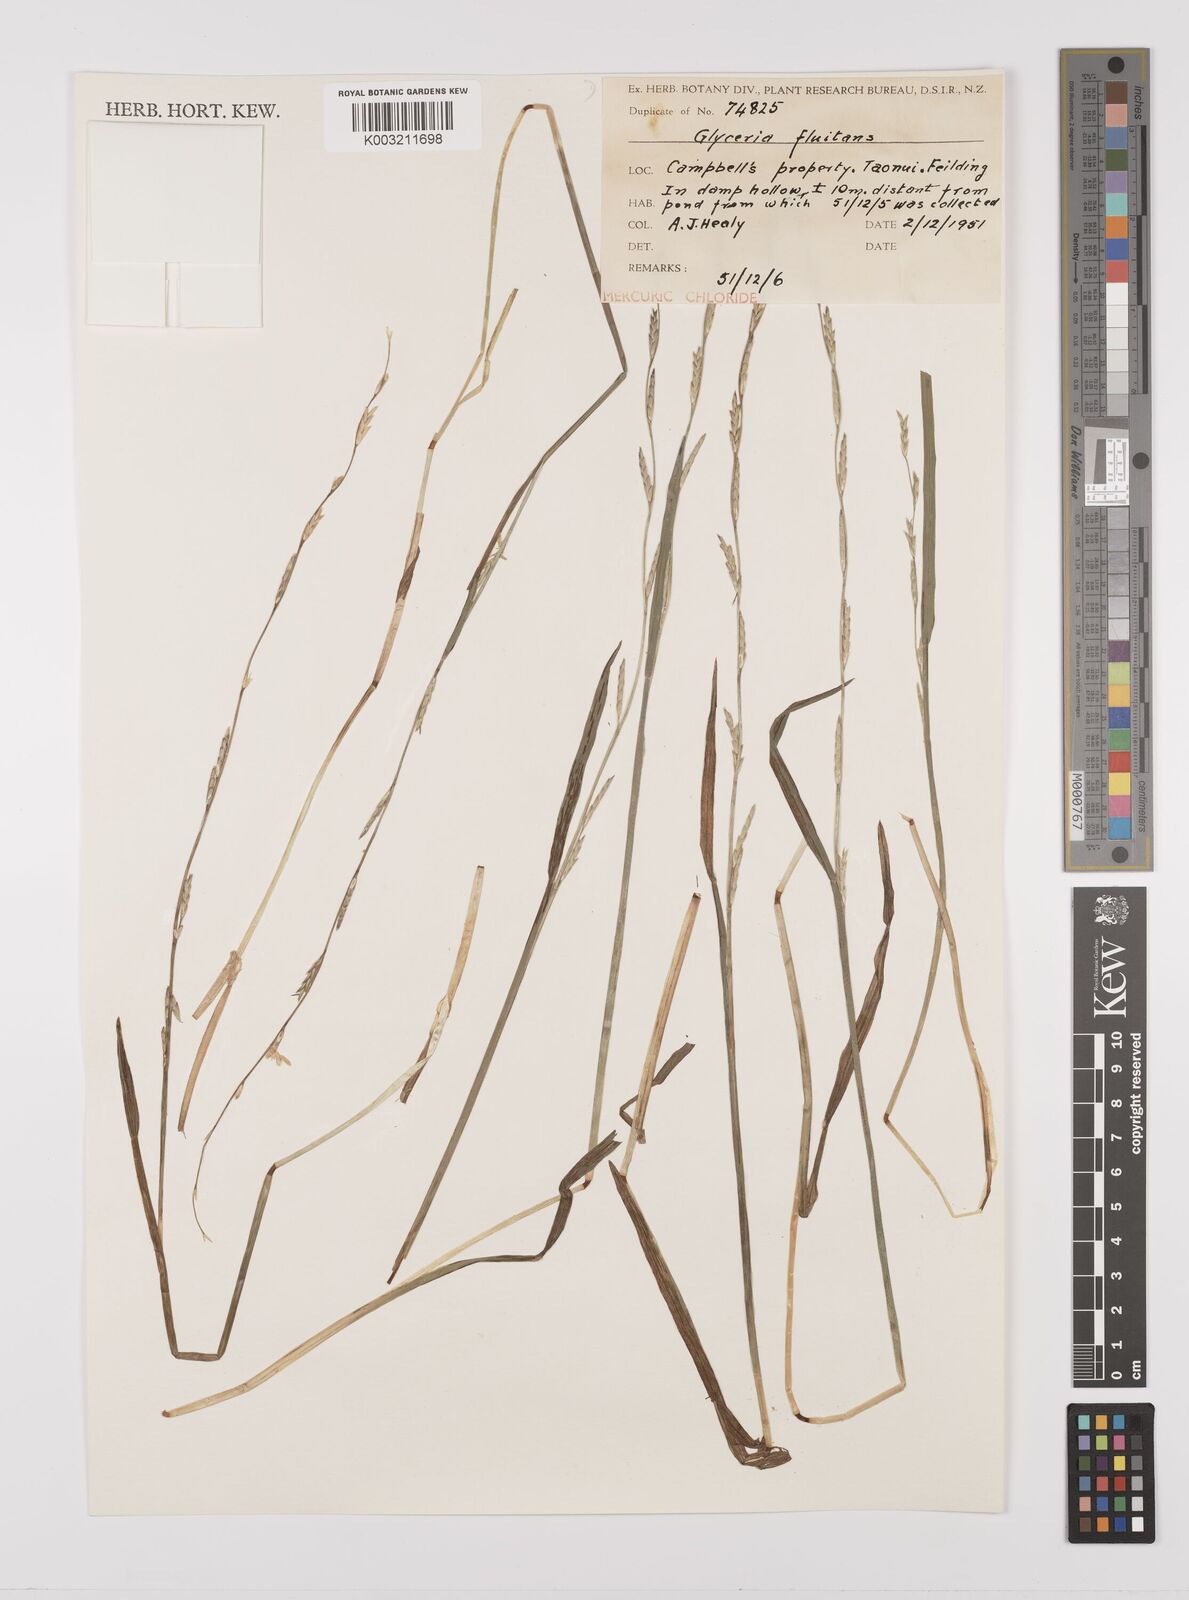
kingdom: Plantae
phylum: Tracheophyta
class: Liliopsida
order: Poales
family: Poaceae
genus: Glyceria
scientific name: Glyceria fluitans
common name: Floating sweet-grass
